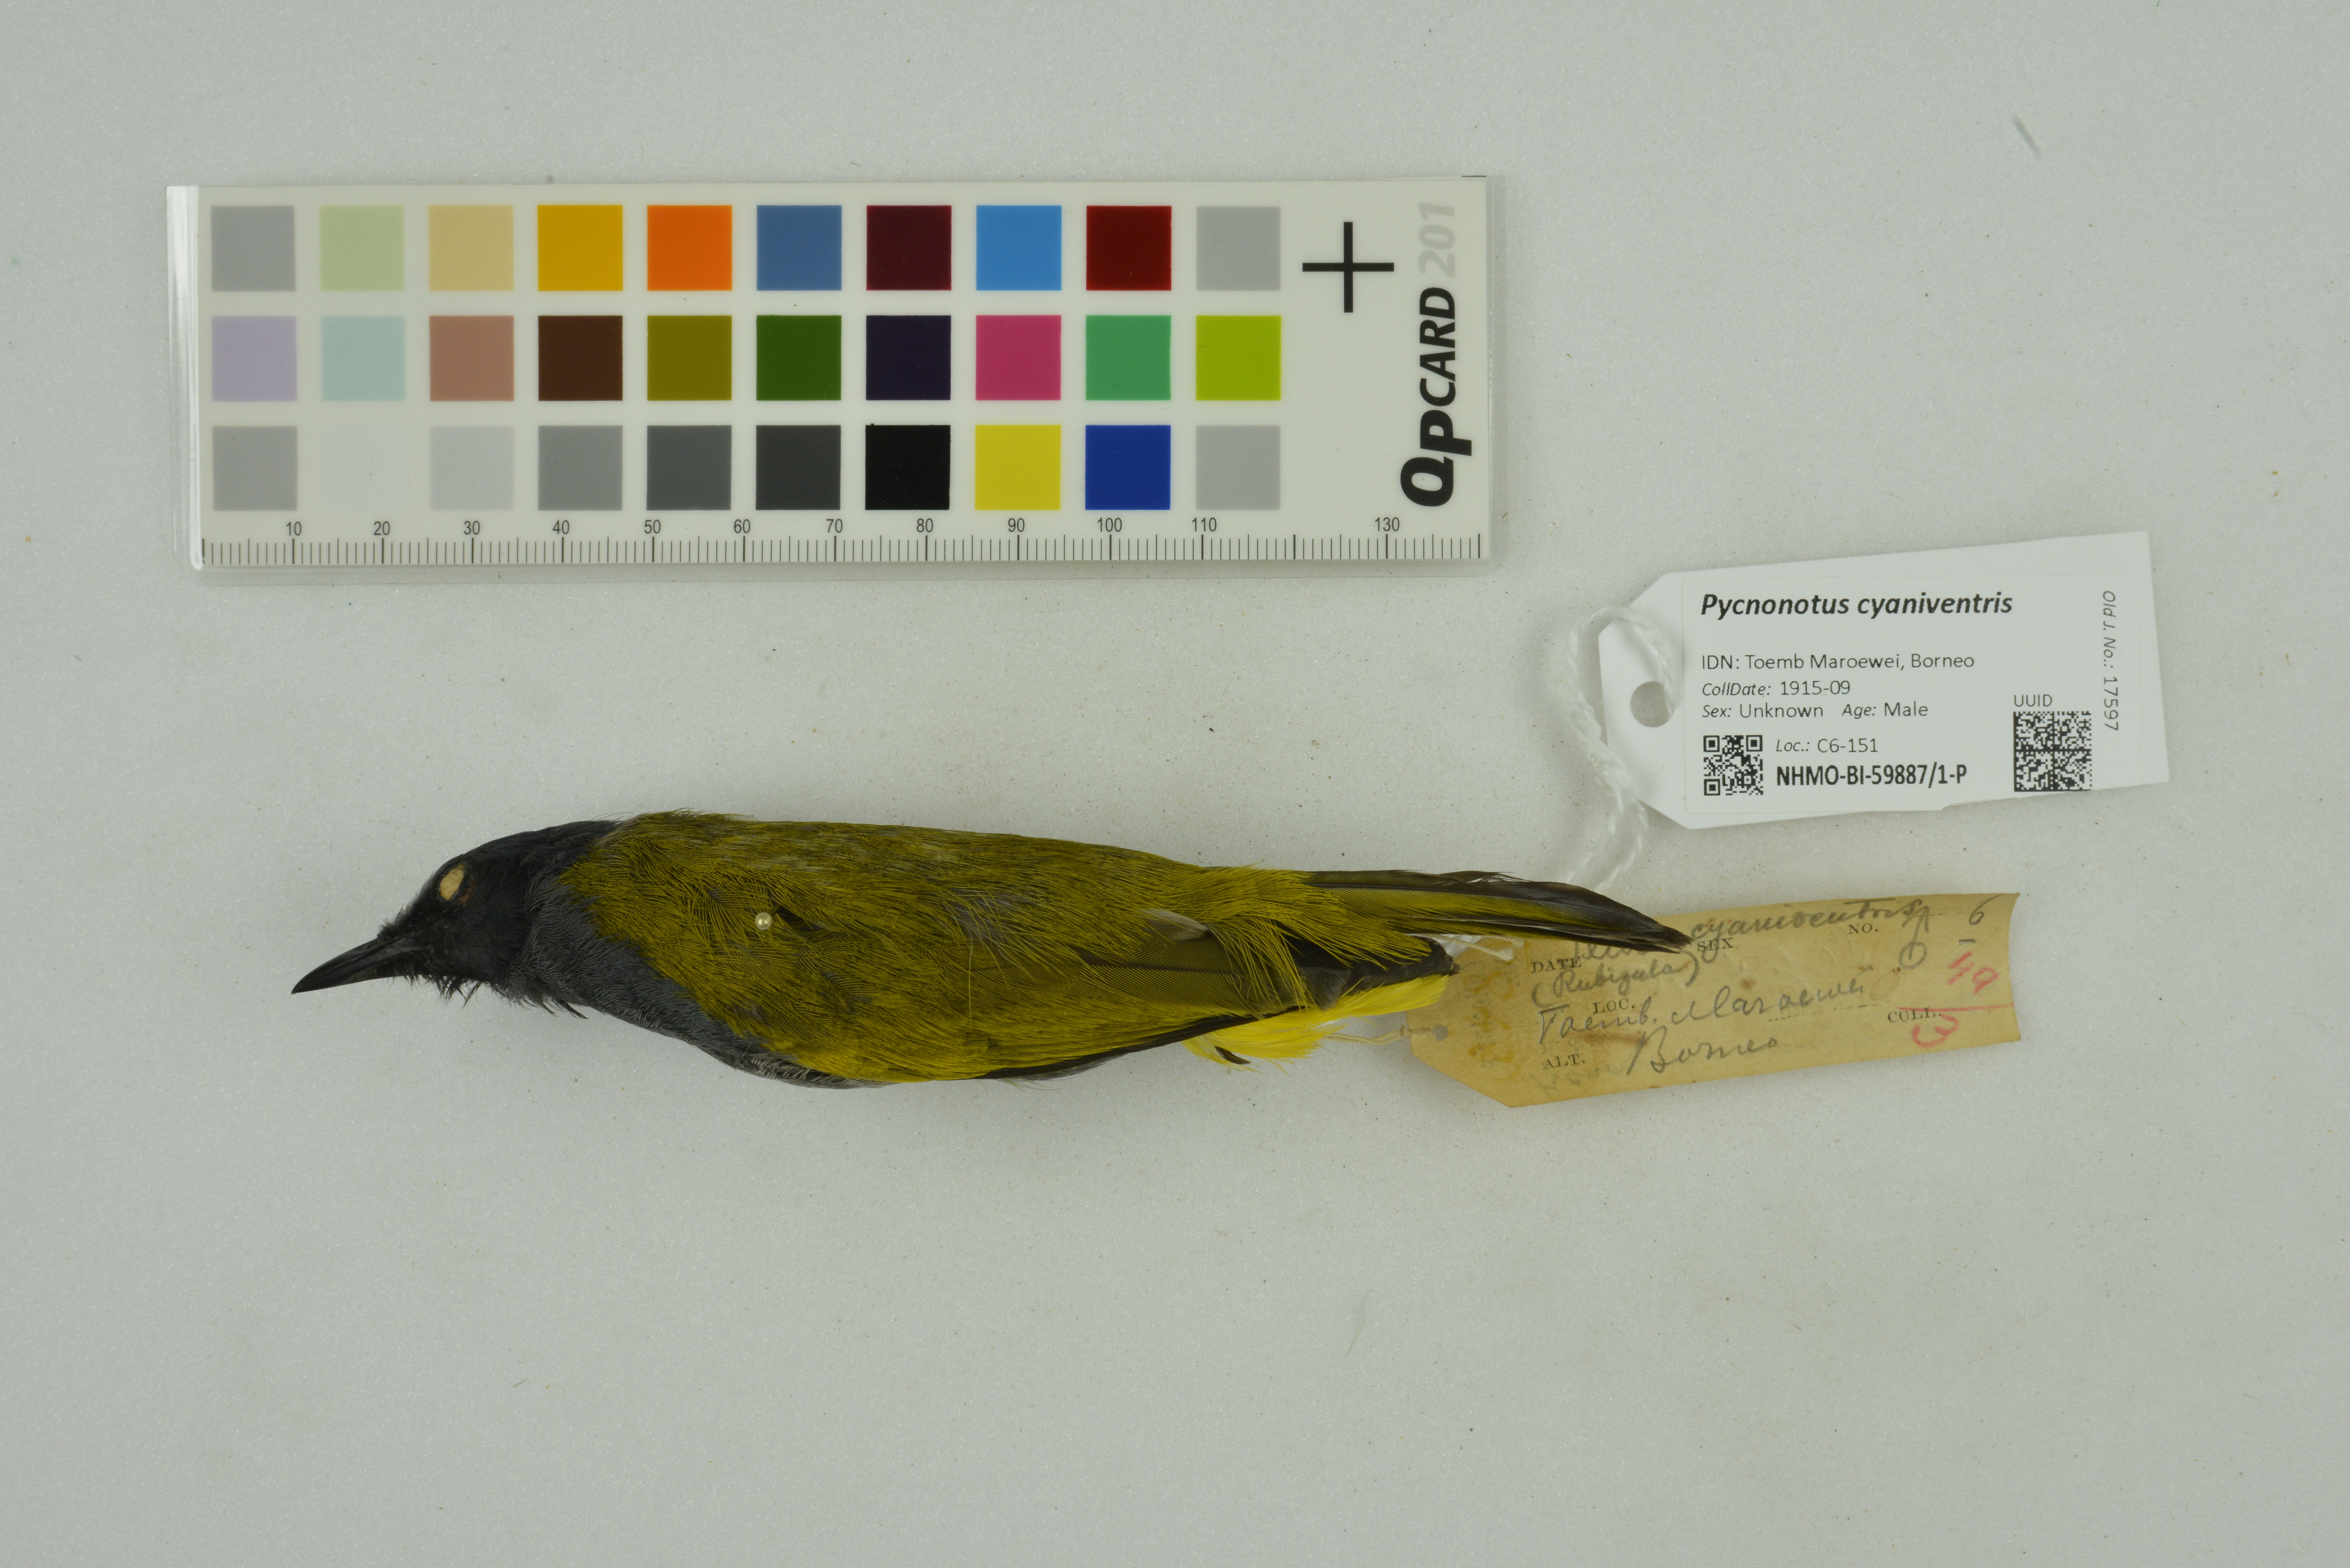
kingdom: Animalia
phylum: Chordata
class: Aves
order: Passeriformes
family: Pycnonotidae
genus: Pycnonotus
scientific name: Pycnonotus cyaniventris
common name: Grey-bellied bulbul
